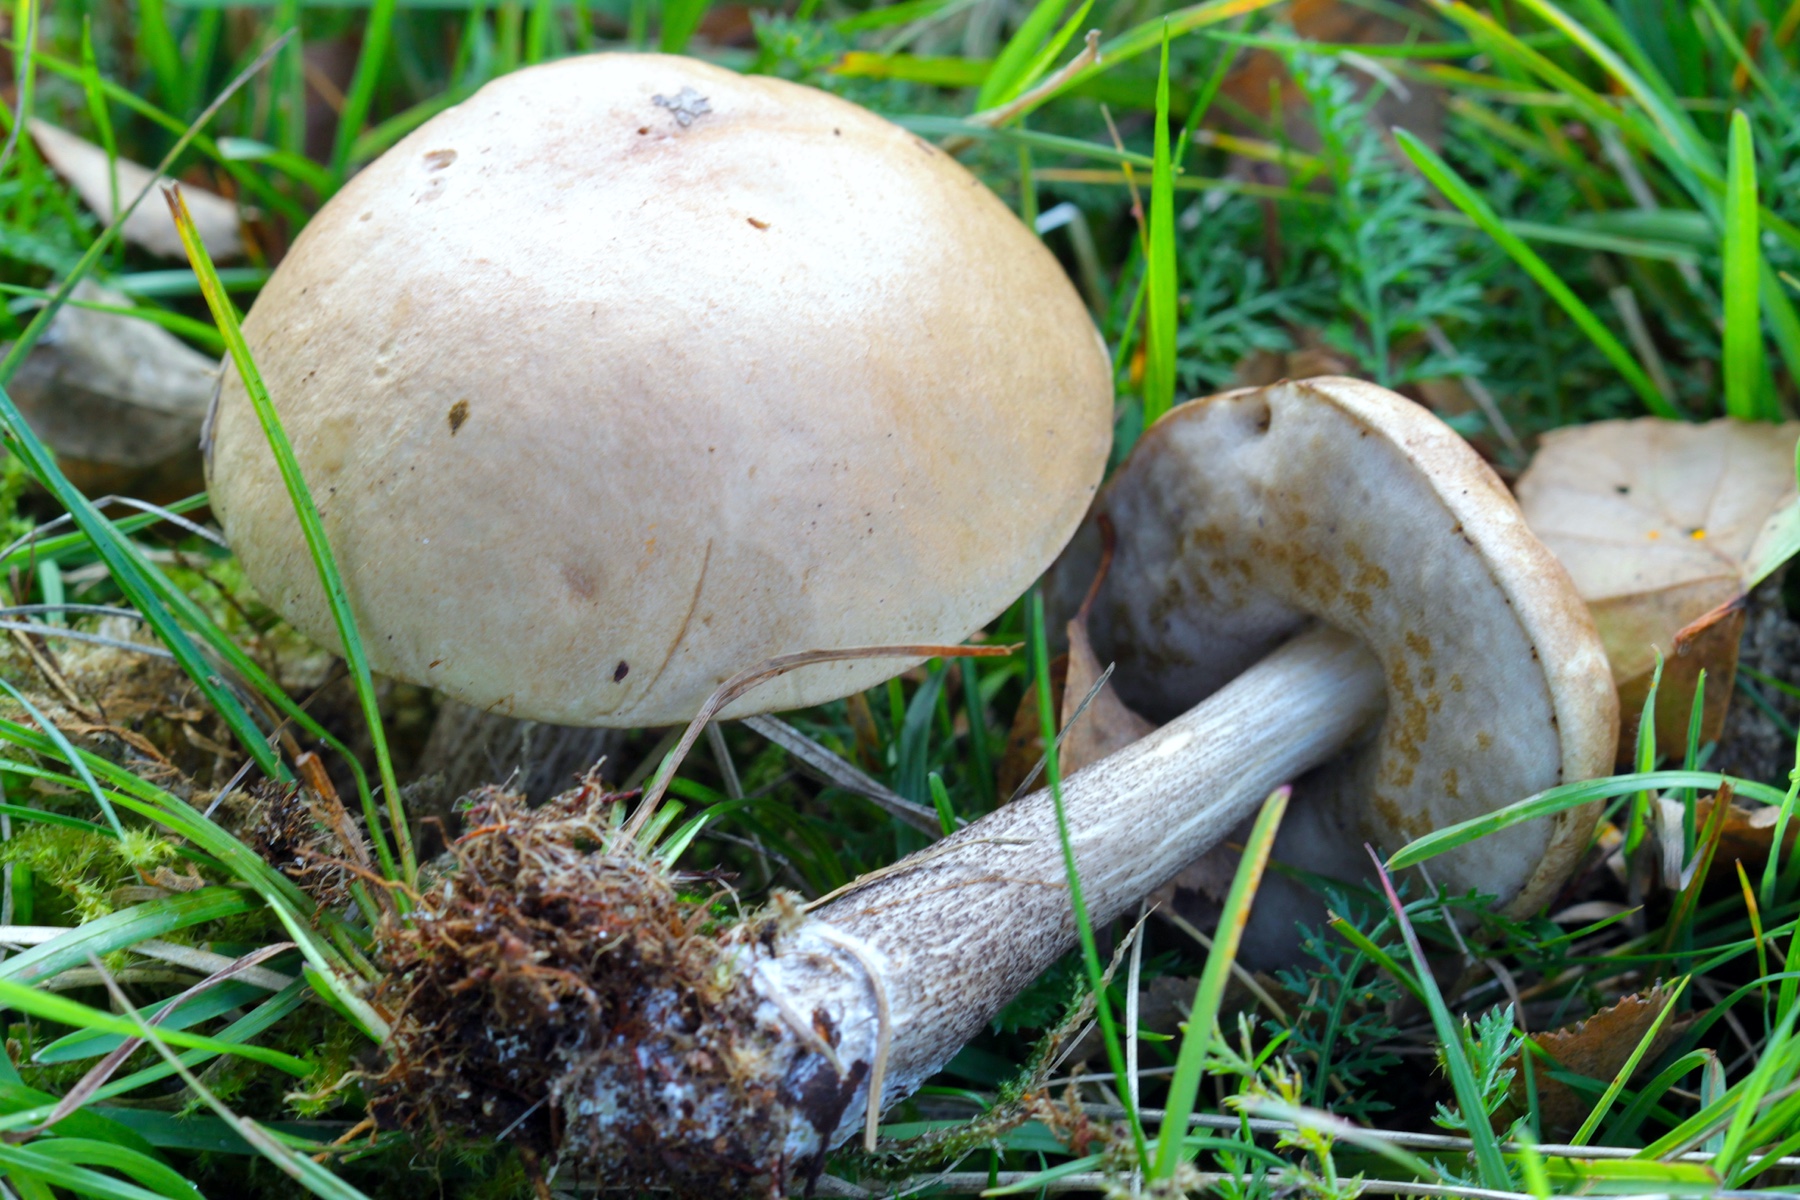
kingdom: Fungi
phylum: Basidiomycota
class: Agaricomycetes
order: Boletales
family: Boletaceae
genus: Leccinum
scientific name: Leccinum scabrum
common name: brun skælrørhat
